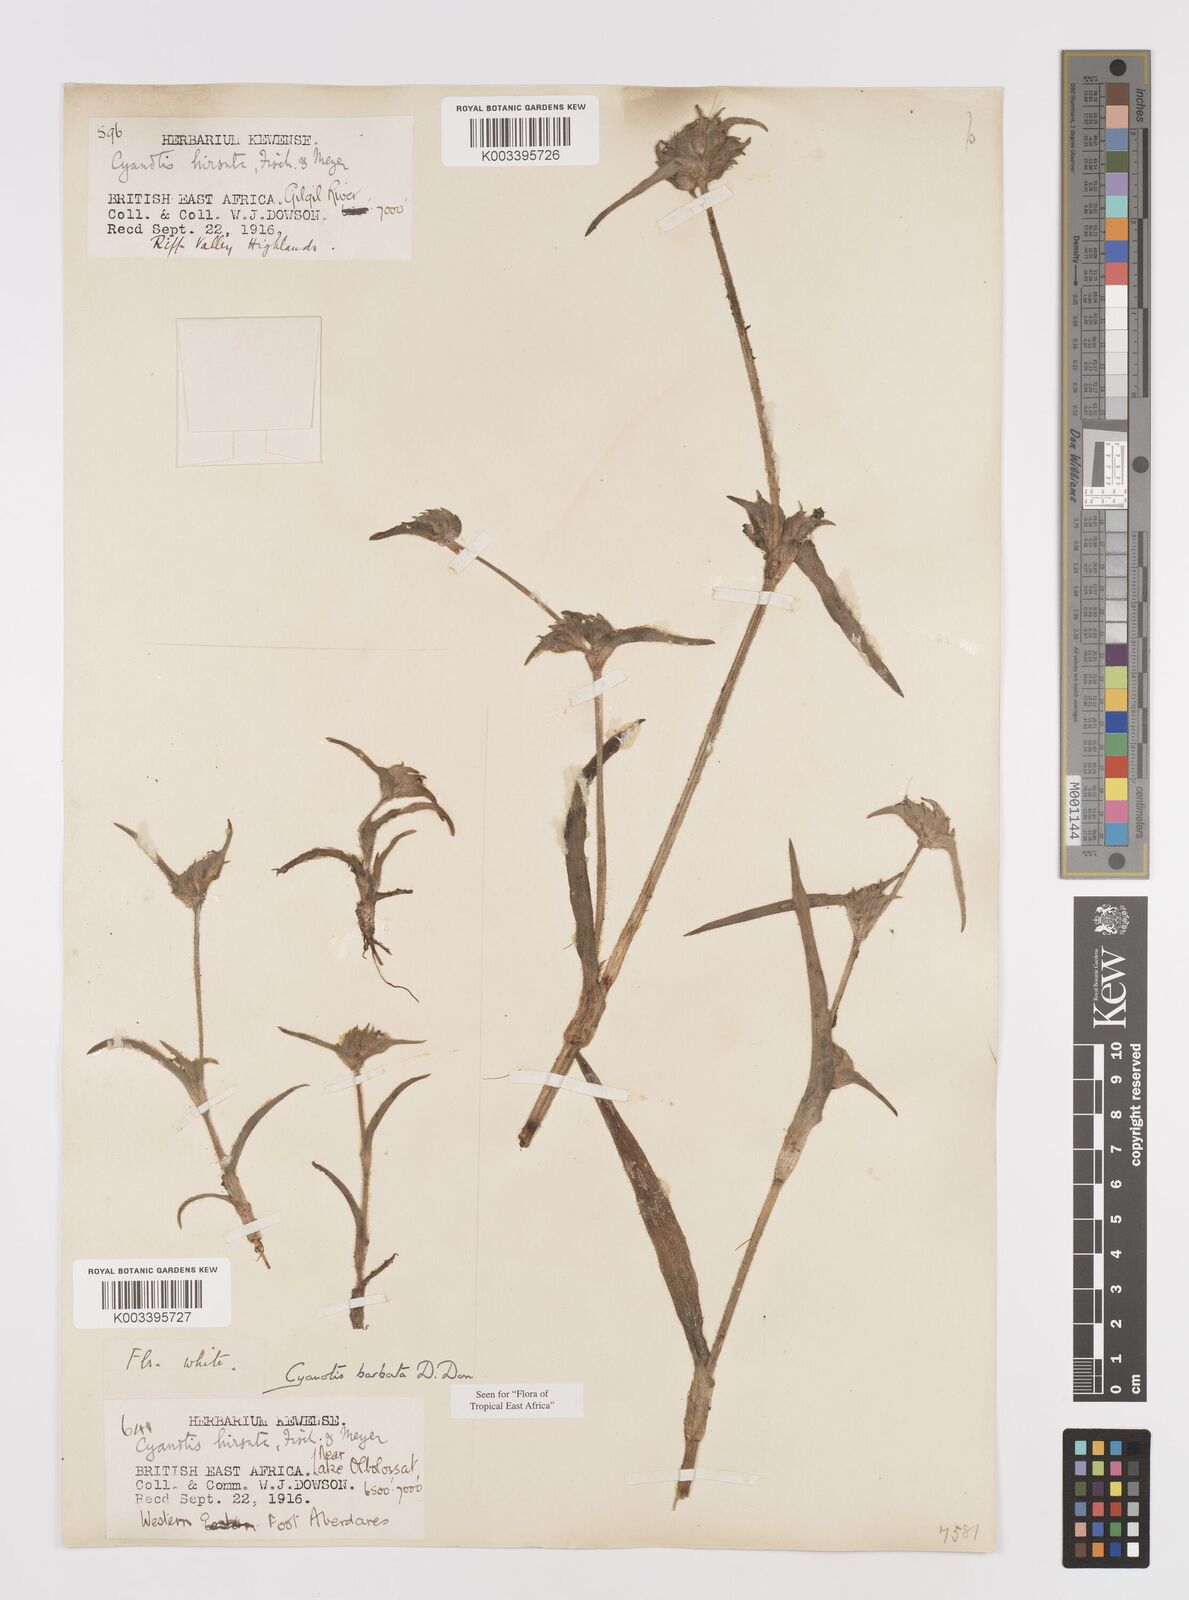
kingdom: Plantae
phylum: Tracheophyta
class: Liliopsida
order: Commelinales
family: Commelinaceae
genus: Cyanotis
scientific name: Cyanotis vaga
